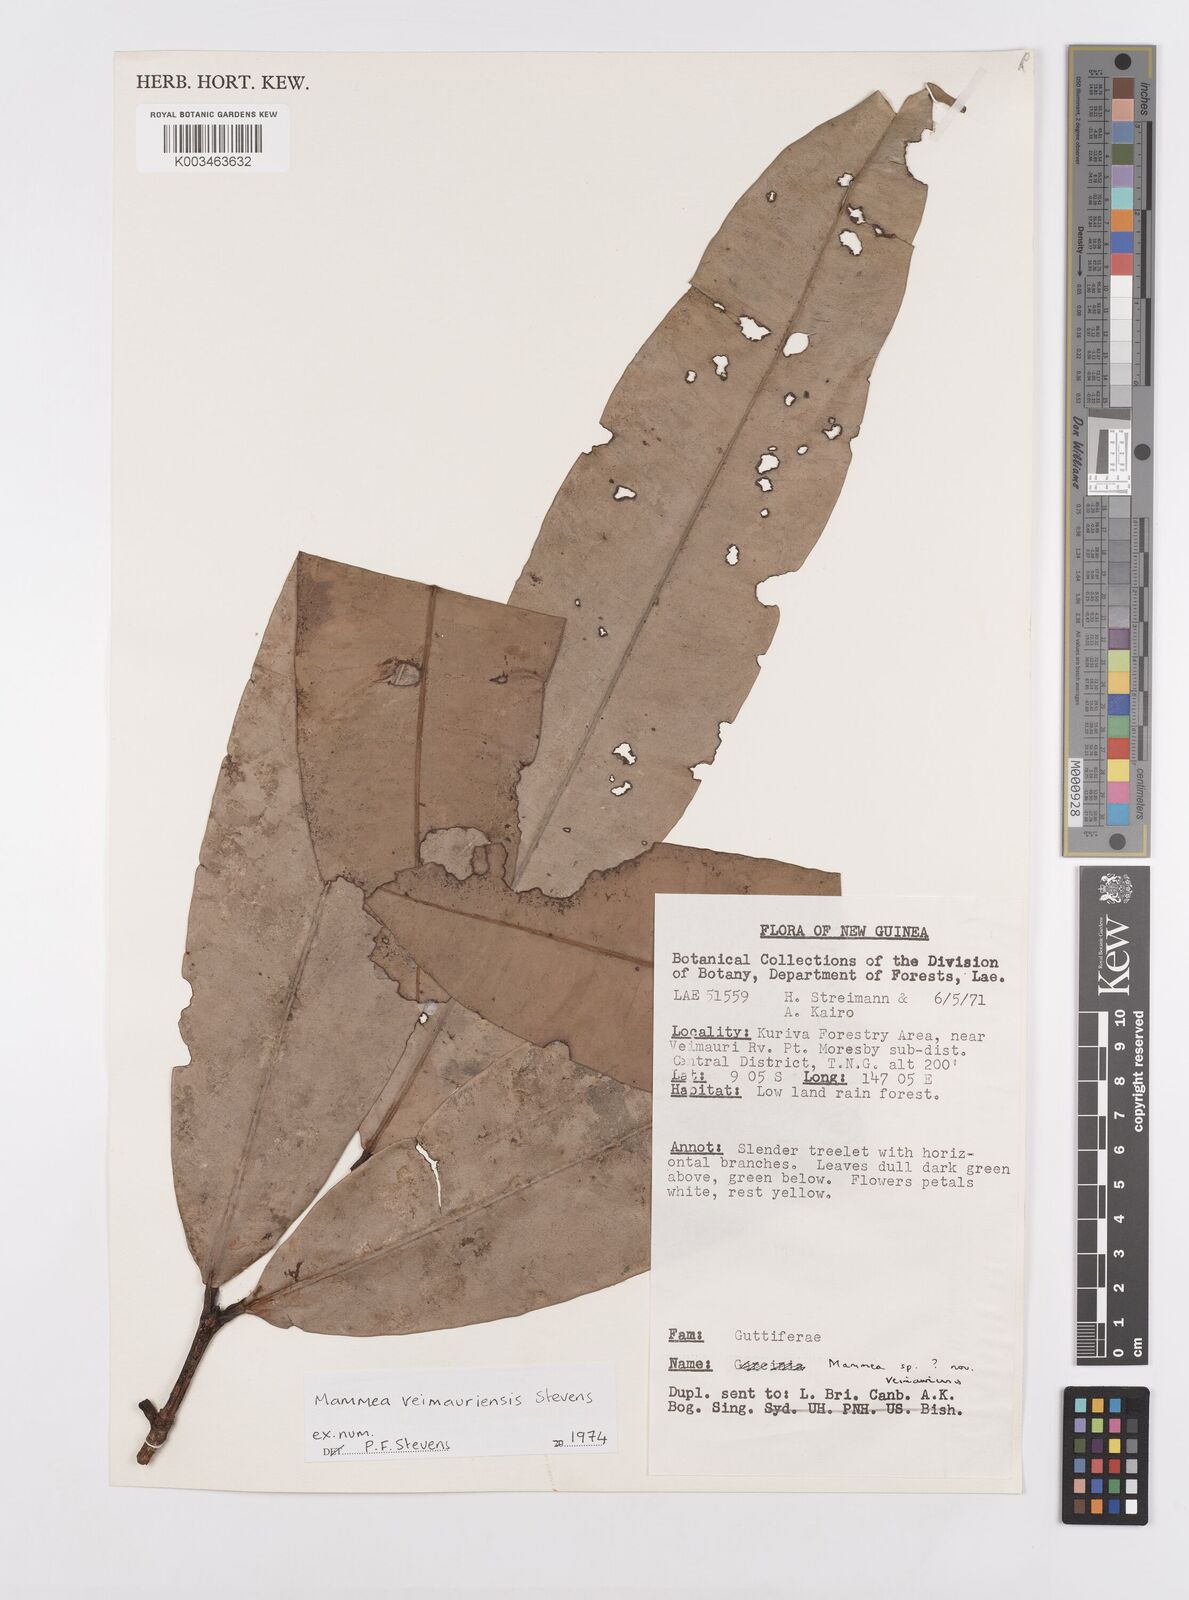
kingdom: Plantae
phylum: Tracheophyta
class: Magnoliopsida
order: Malpighiales
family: Calophyllaceae
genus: Mammea
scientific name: Mammea veimauriensis
